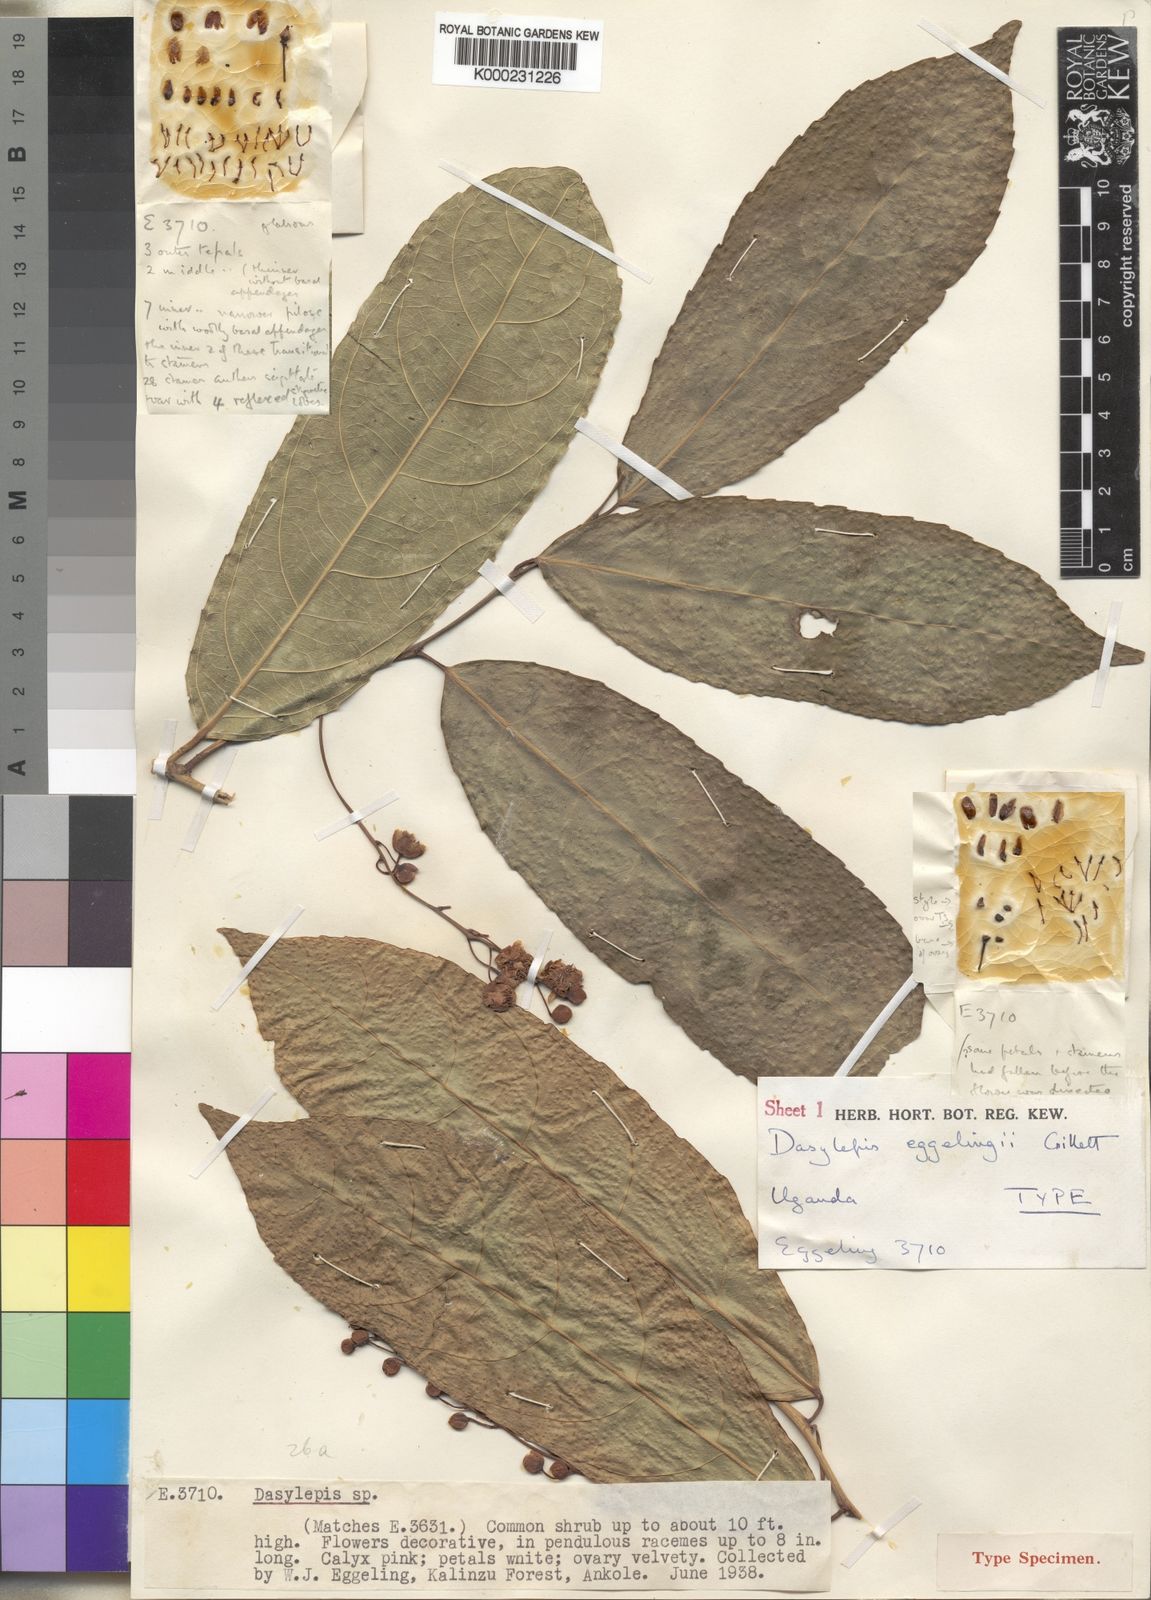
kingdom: Plantae
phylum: Tracheophyta
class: Magnoliopsida
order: Malpighiales
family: Achariaceae
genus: Dasylepis
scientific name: Dasylepis eggelingii
